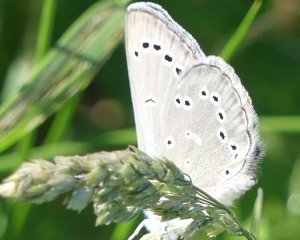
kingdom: Animalia
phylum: Arthropoda
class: Insecta
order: Lepidoptera
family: Lycaenidae
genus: Glaucopsyche
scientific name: Glaucopsyche lygdamus
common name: Silvery Blue
